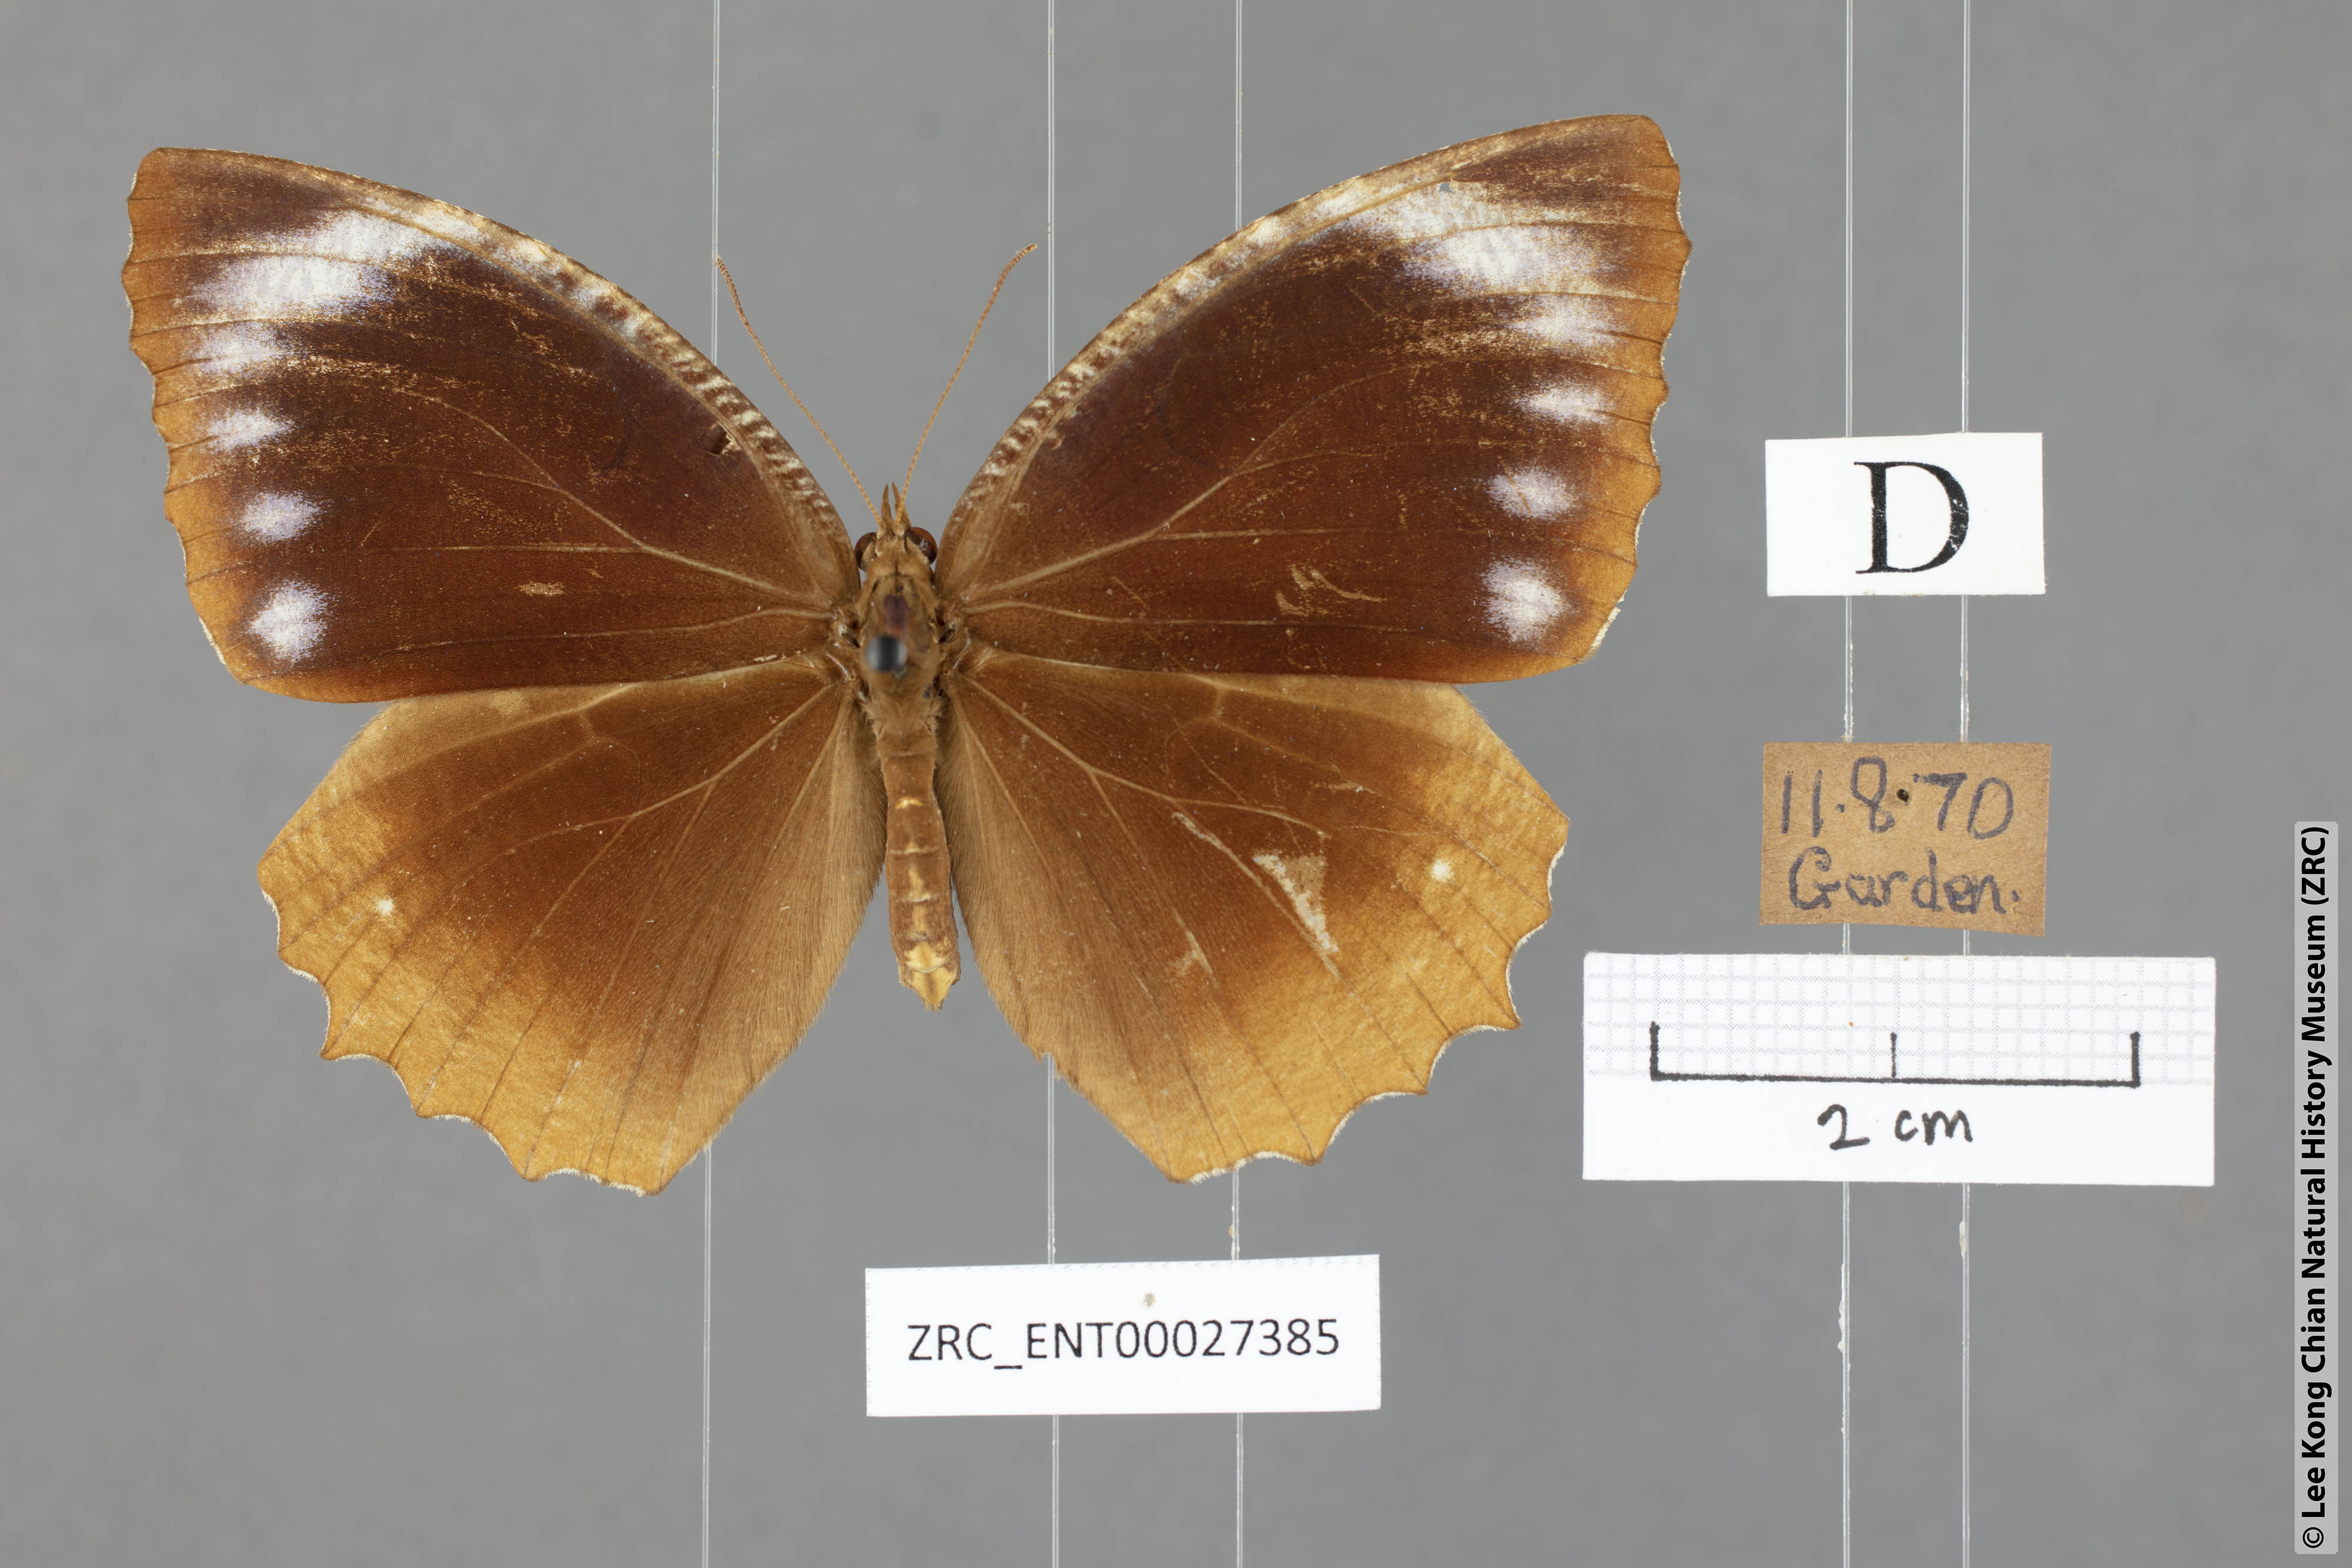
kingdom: Animalia
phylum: Arthropoda
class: Insecta
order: Lepidoptera
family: Nymphalidae
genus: Elymnias
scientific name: Elymnias hypermnestra
